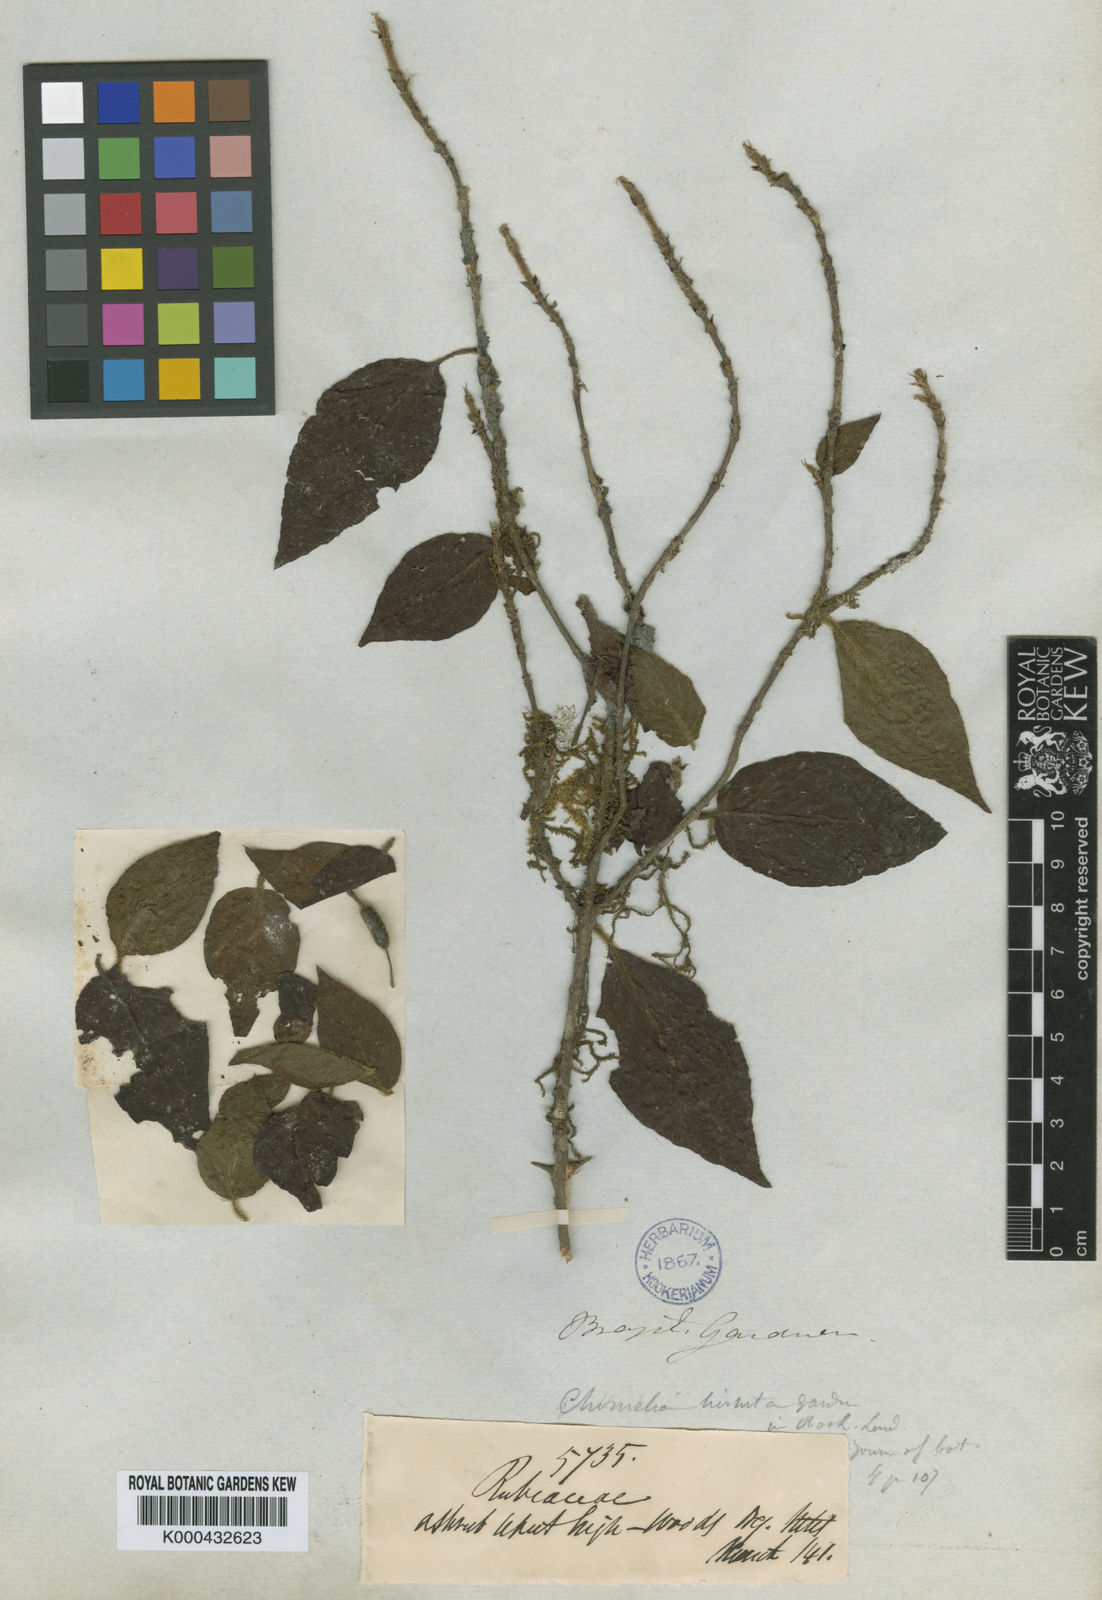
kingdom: Plantae
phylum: Tracheophyta
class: Magnoliopsida
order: Gentianales
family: Rubiaceae
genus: Chomelia
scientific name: Chomelia hirsuta
